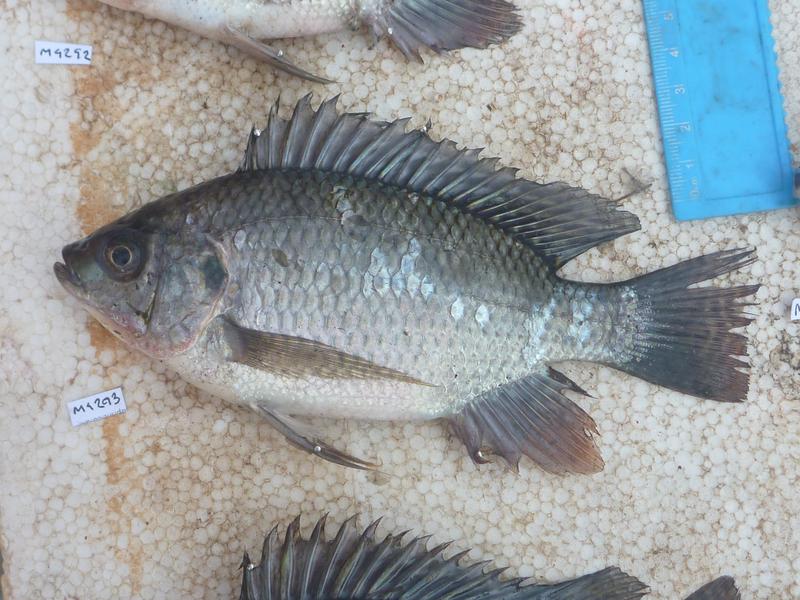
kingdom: Animalia
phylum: Chordata
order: Perciformes
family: Cichlidae
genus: Oreochromis
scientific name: Oreochromis niloticus
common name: Nile tilapia
